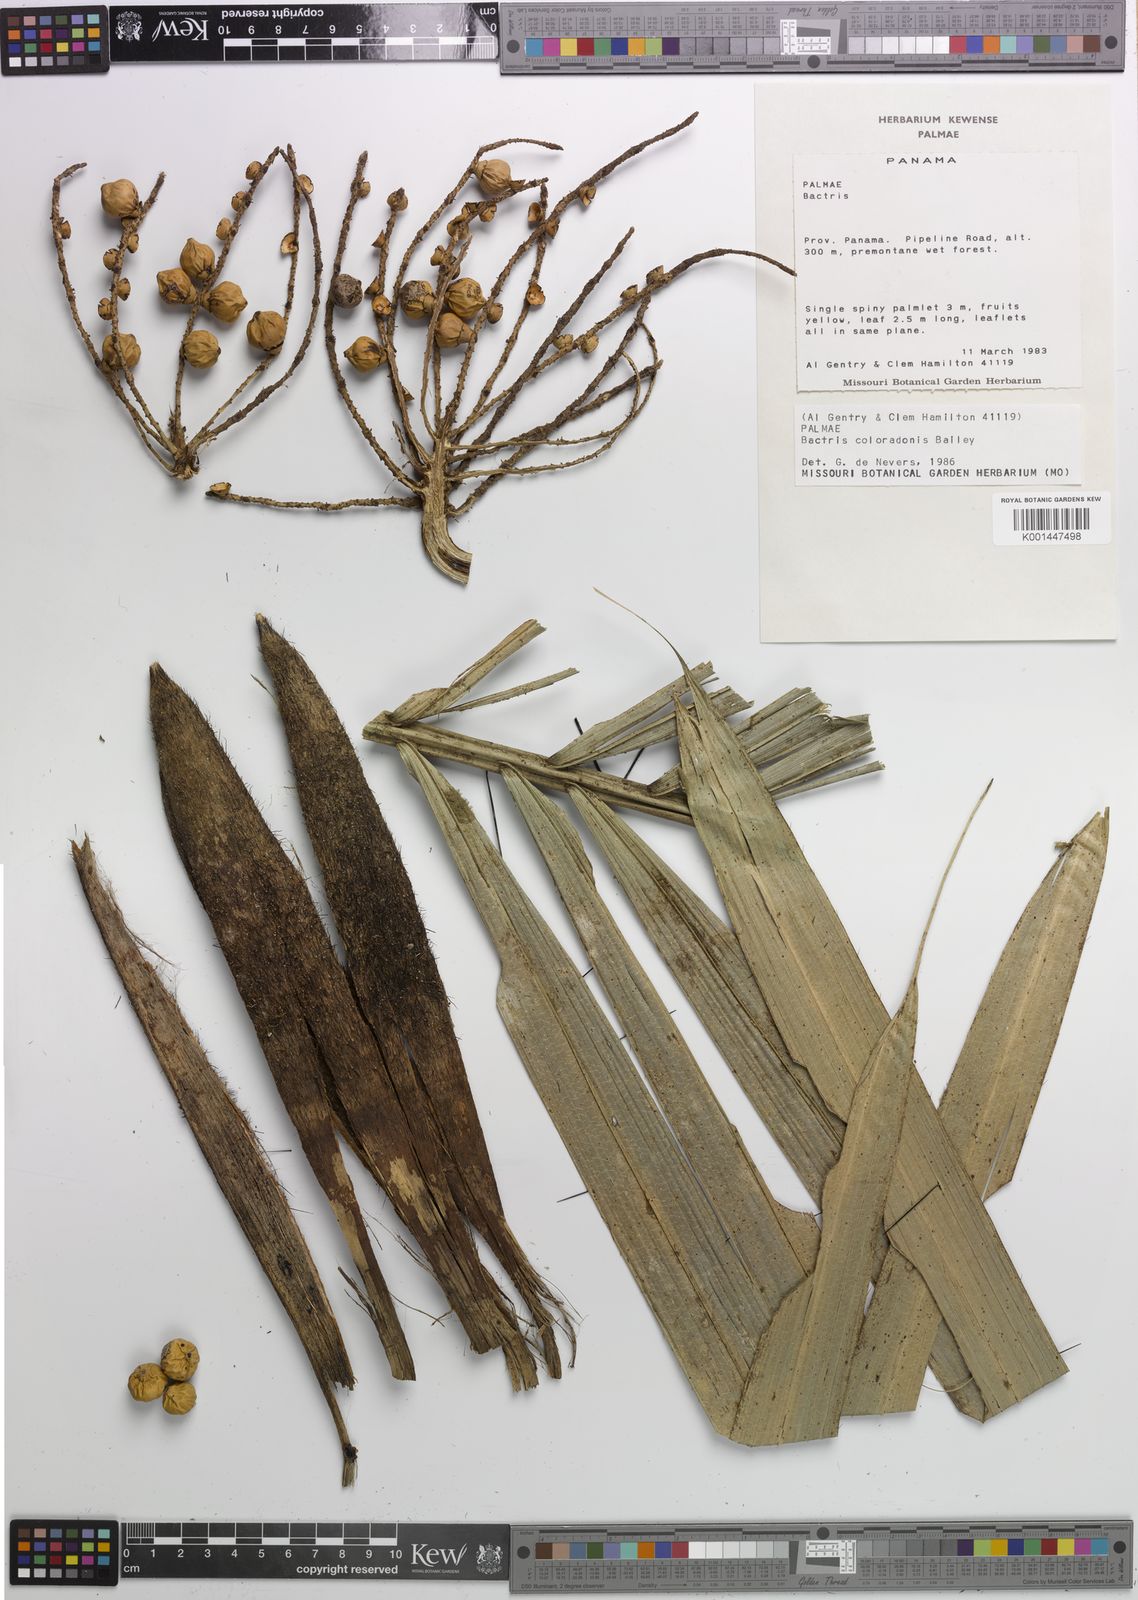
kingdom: Plantae
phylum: Tracheophyta
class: Liliopsida
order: Arecales
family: Arecaceae
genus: Bactris
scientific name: Bactris coloradonis
